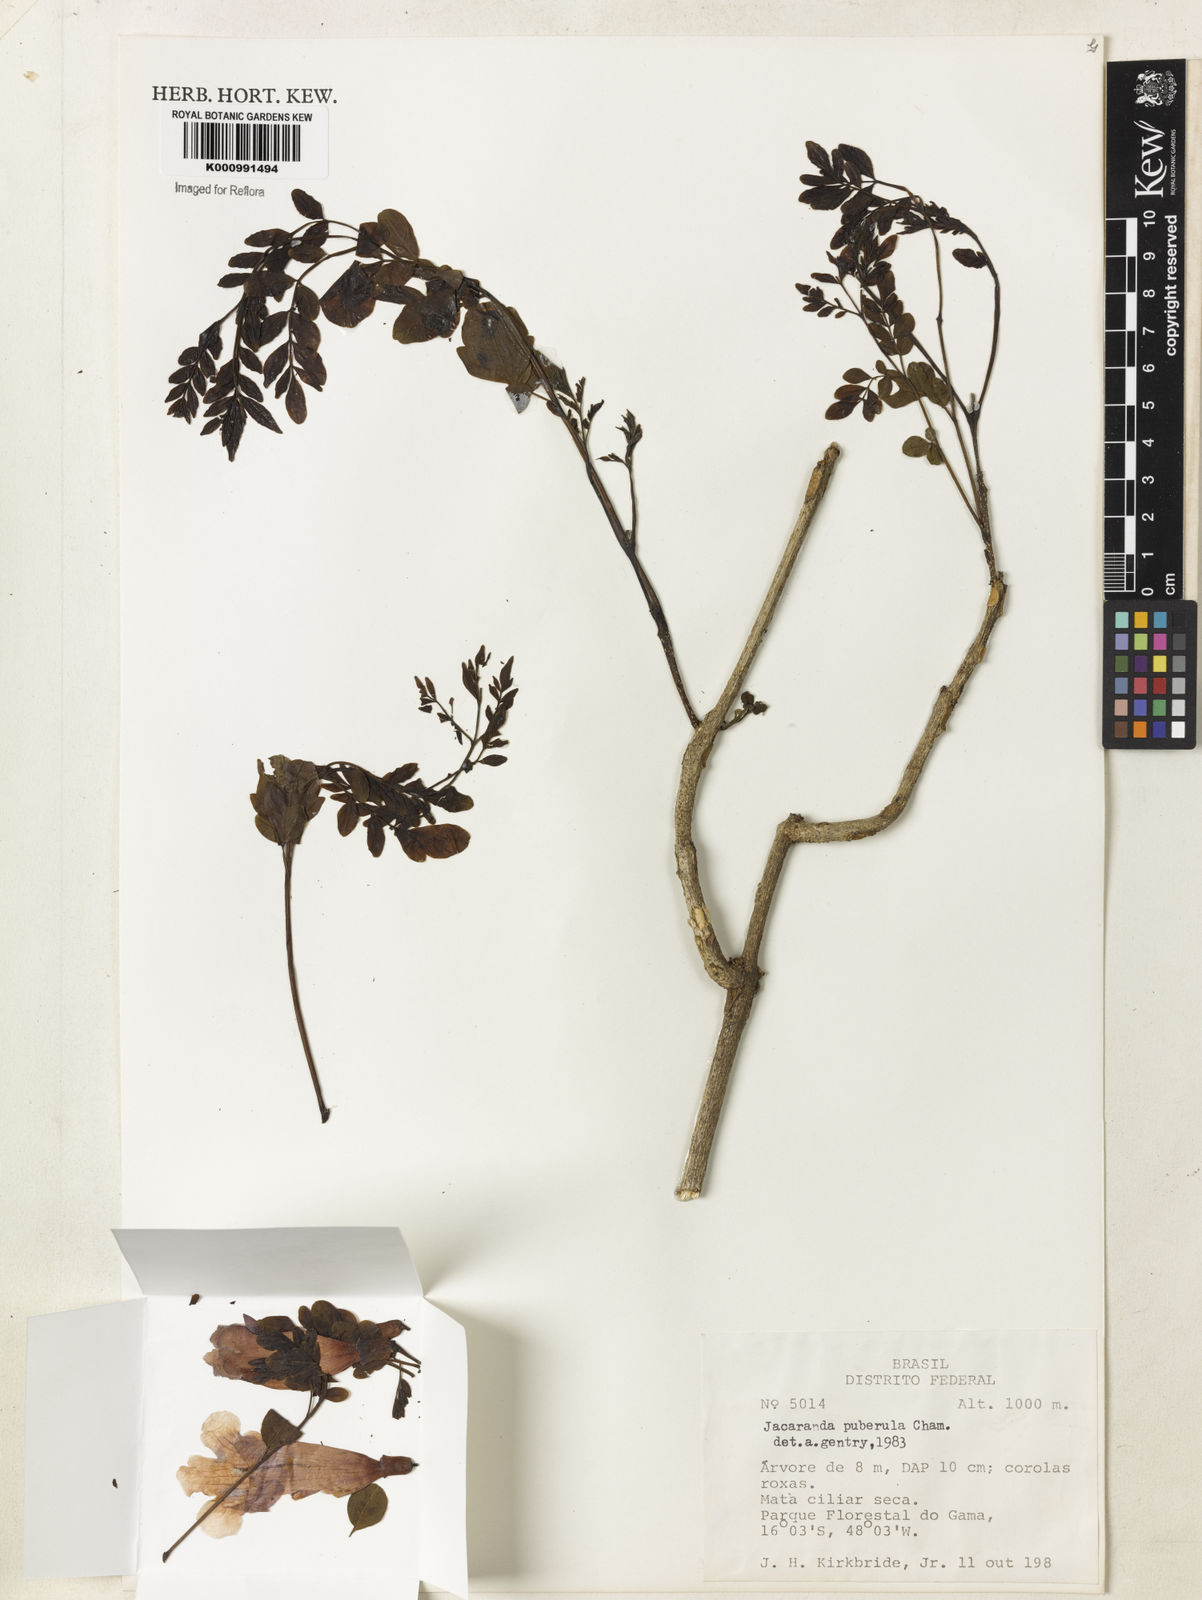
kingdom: Plantae
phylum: Tracheophyta
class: Magnoliopsida
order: Lamiales
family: Bignoniaceae
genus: Jacaranda
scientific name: Jacaranda puberula
